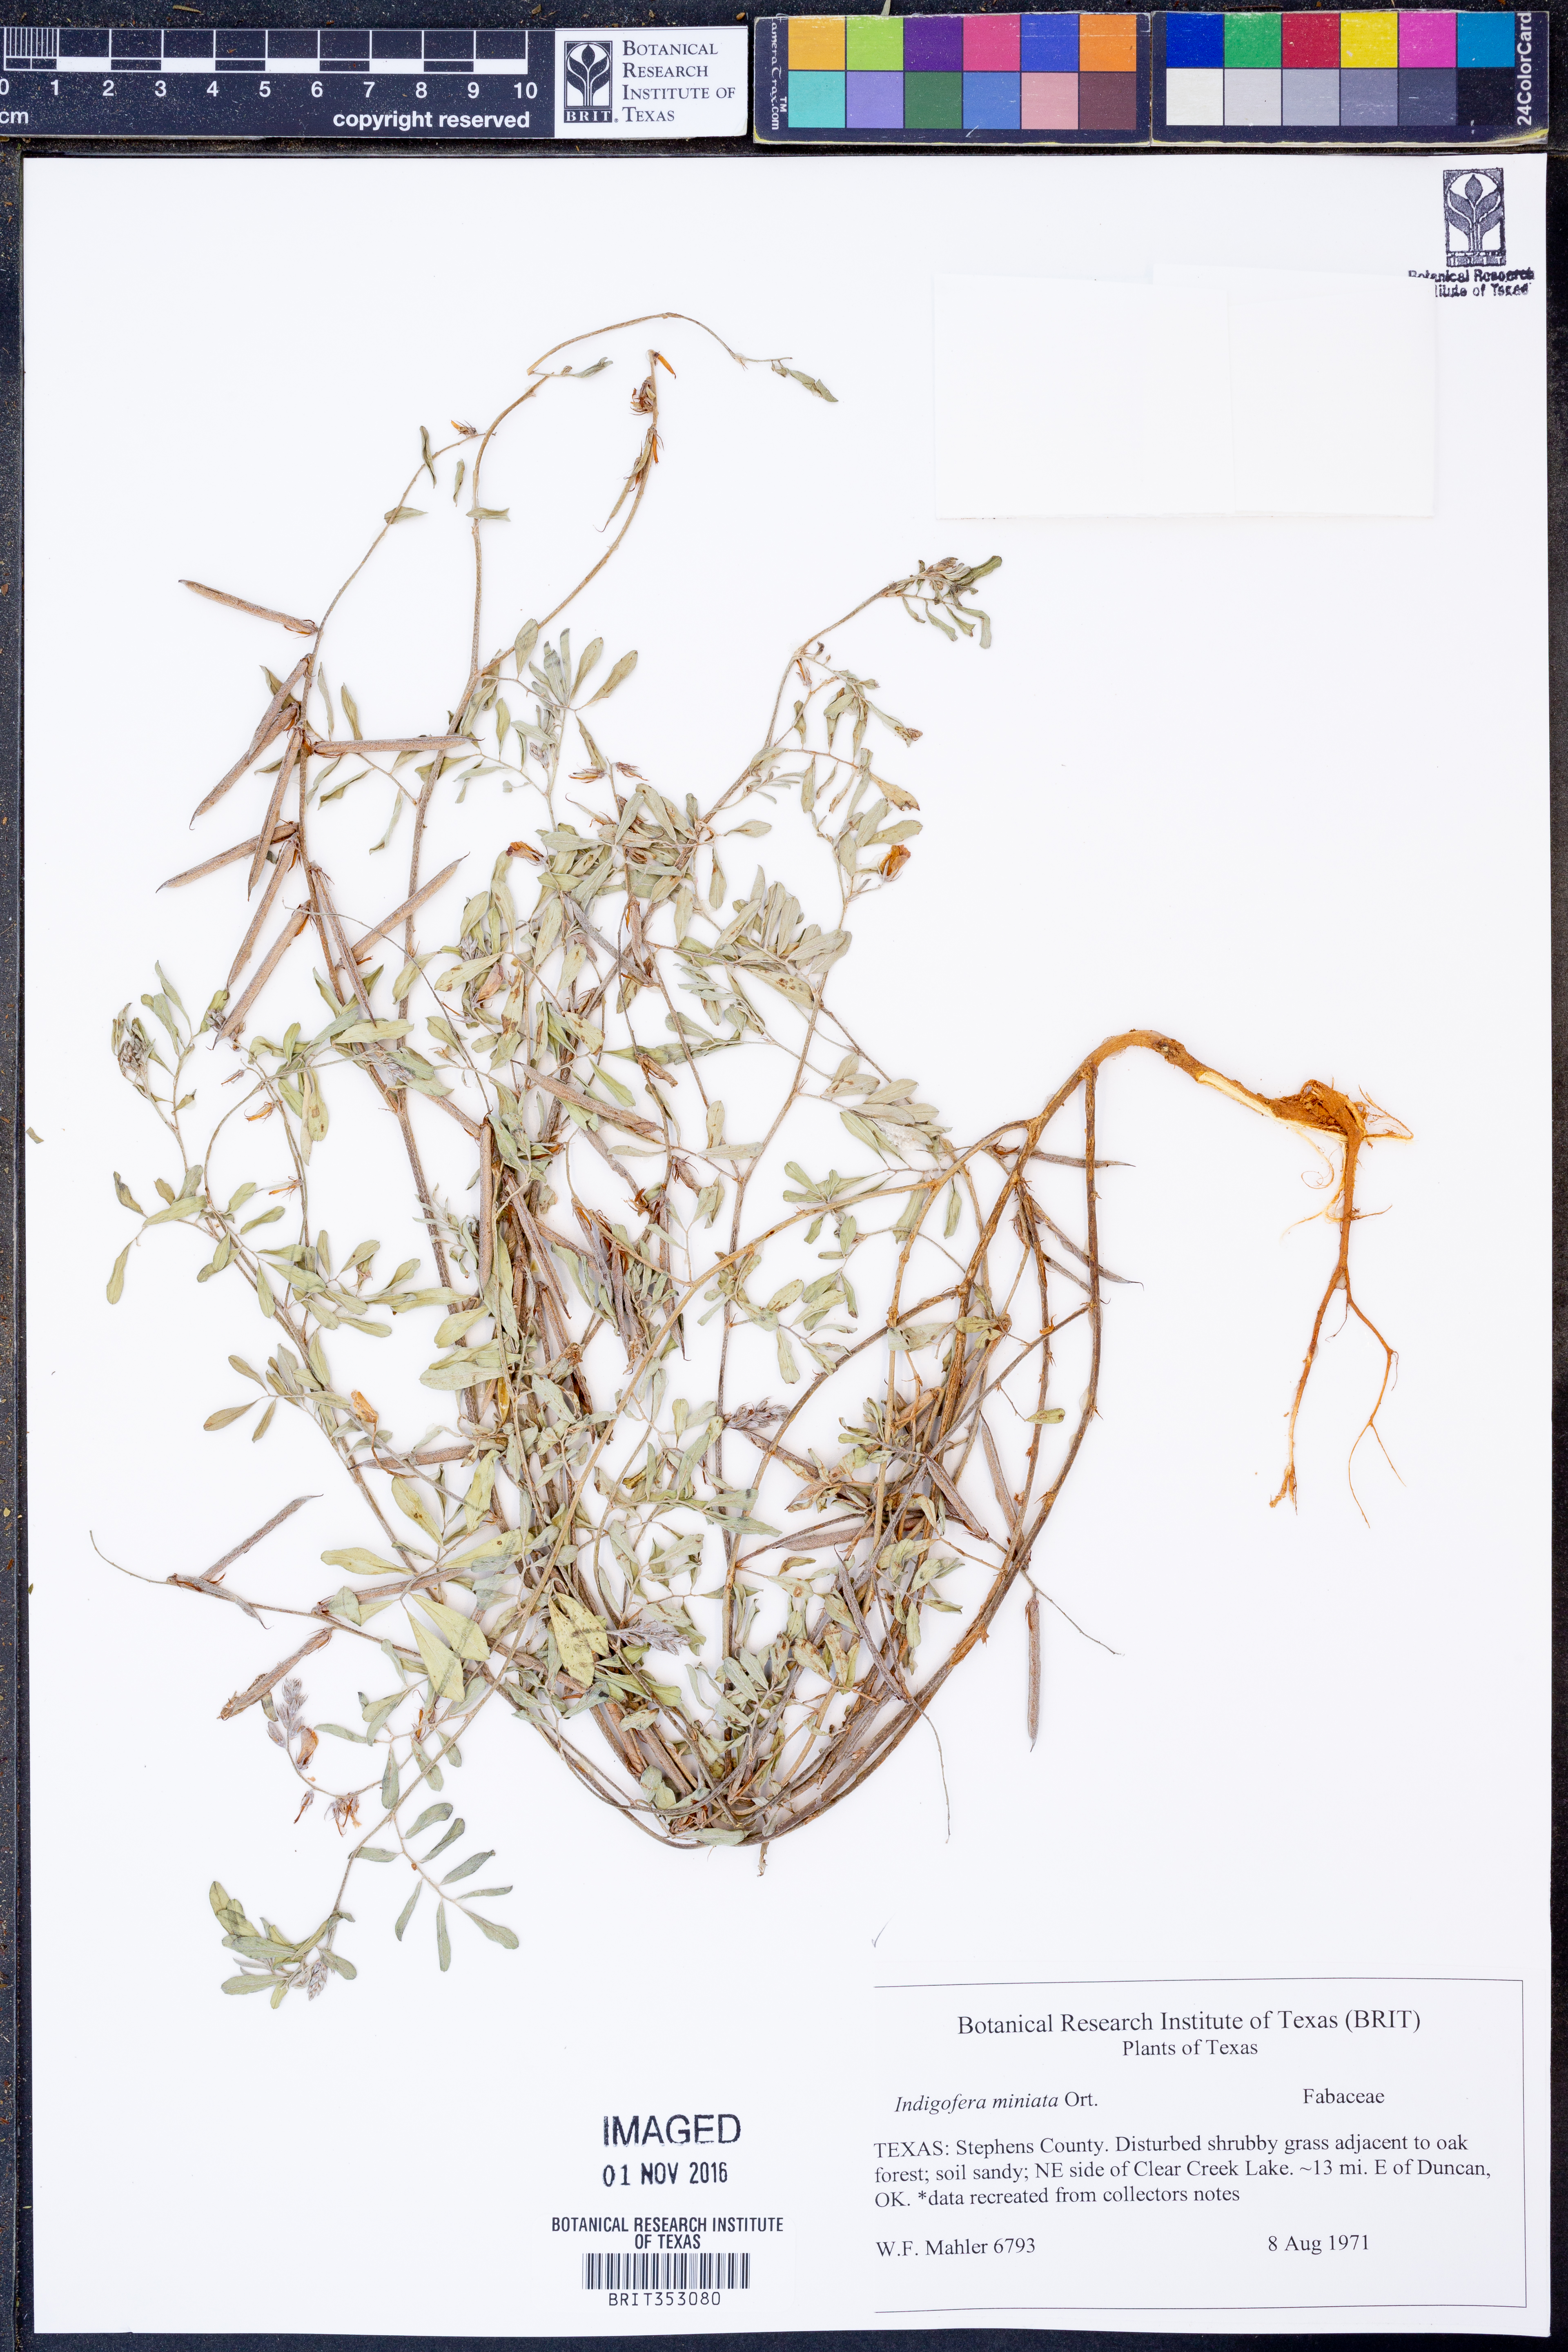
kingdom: Plantae
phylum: Tracheophyta
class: Magnoliopsida
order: Fabales
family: Fabaceae
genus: Indigofera
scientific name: Indigofera miniata
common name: Coast indigo
